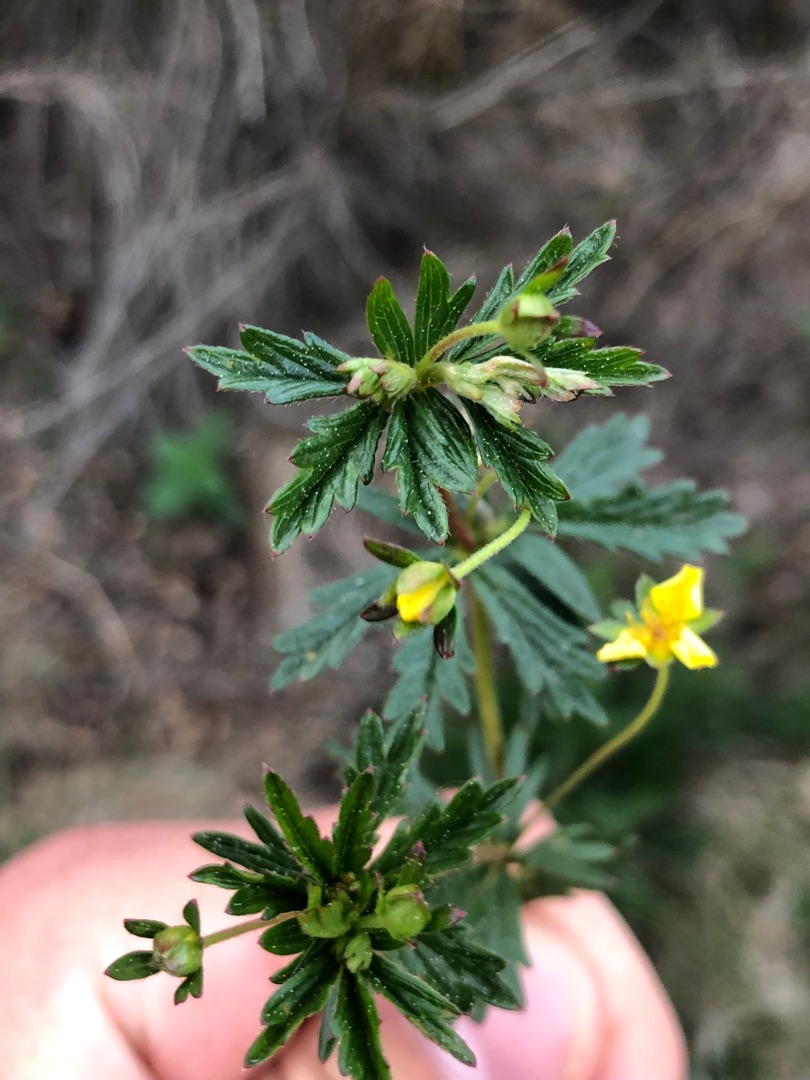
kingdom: Plantae
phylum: Tracheophyta
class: Magnoliopsida
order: Rosales
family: Rosaceae
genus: Potentilla
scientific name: Potentilla erecta
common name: Tormentil
